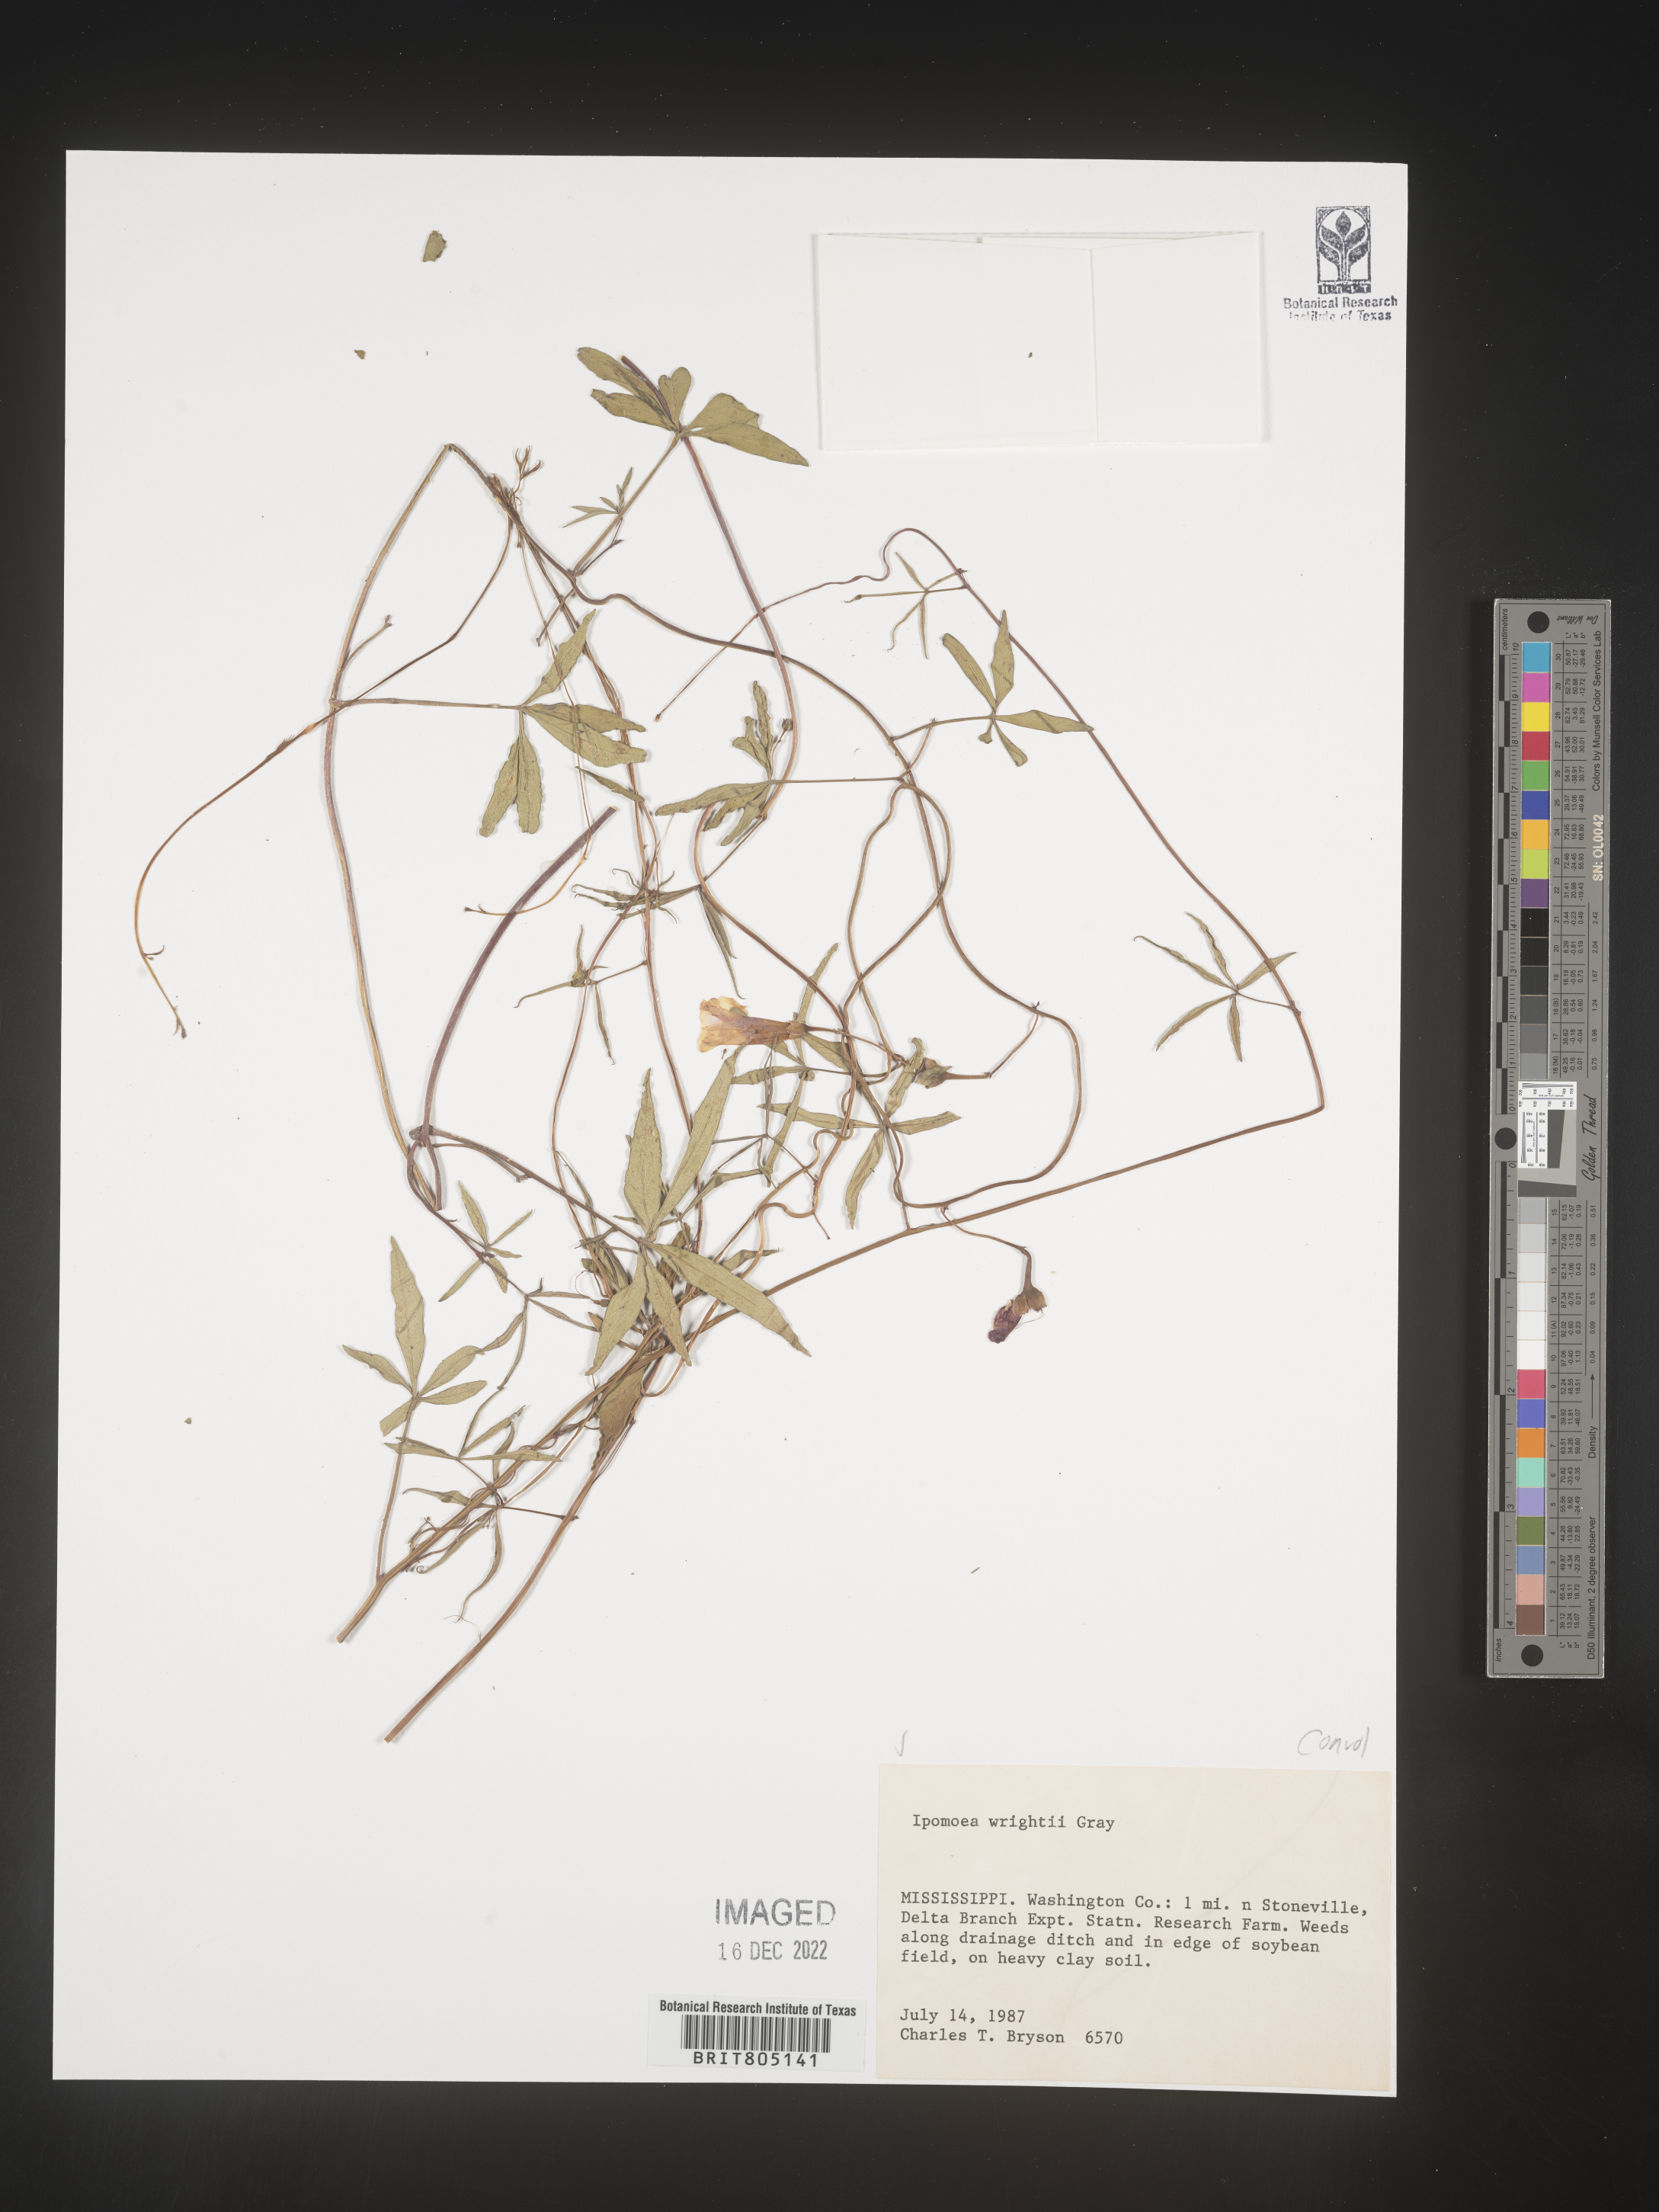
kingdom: Plantae
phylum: Tracheophyta
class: Magnoliopsida
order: Solanales
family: Convolvulaceae
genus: Ipomoea
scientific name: Ipomoea heptaphylla
